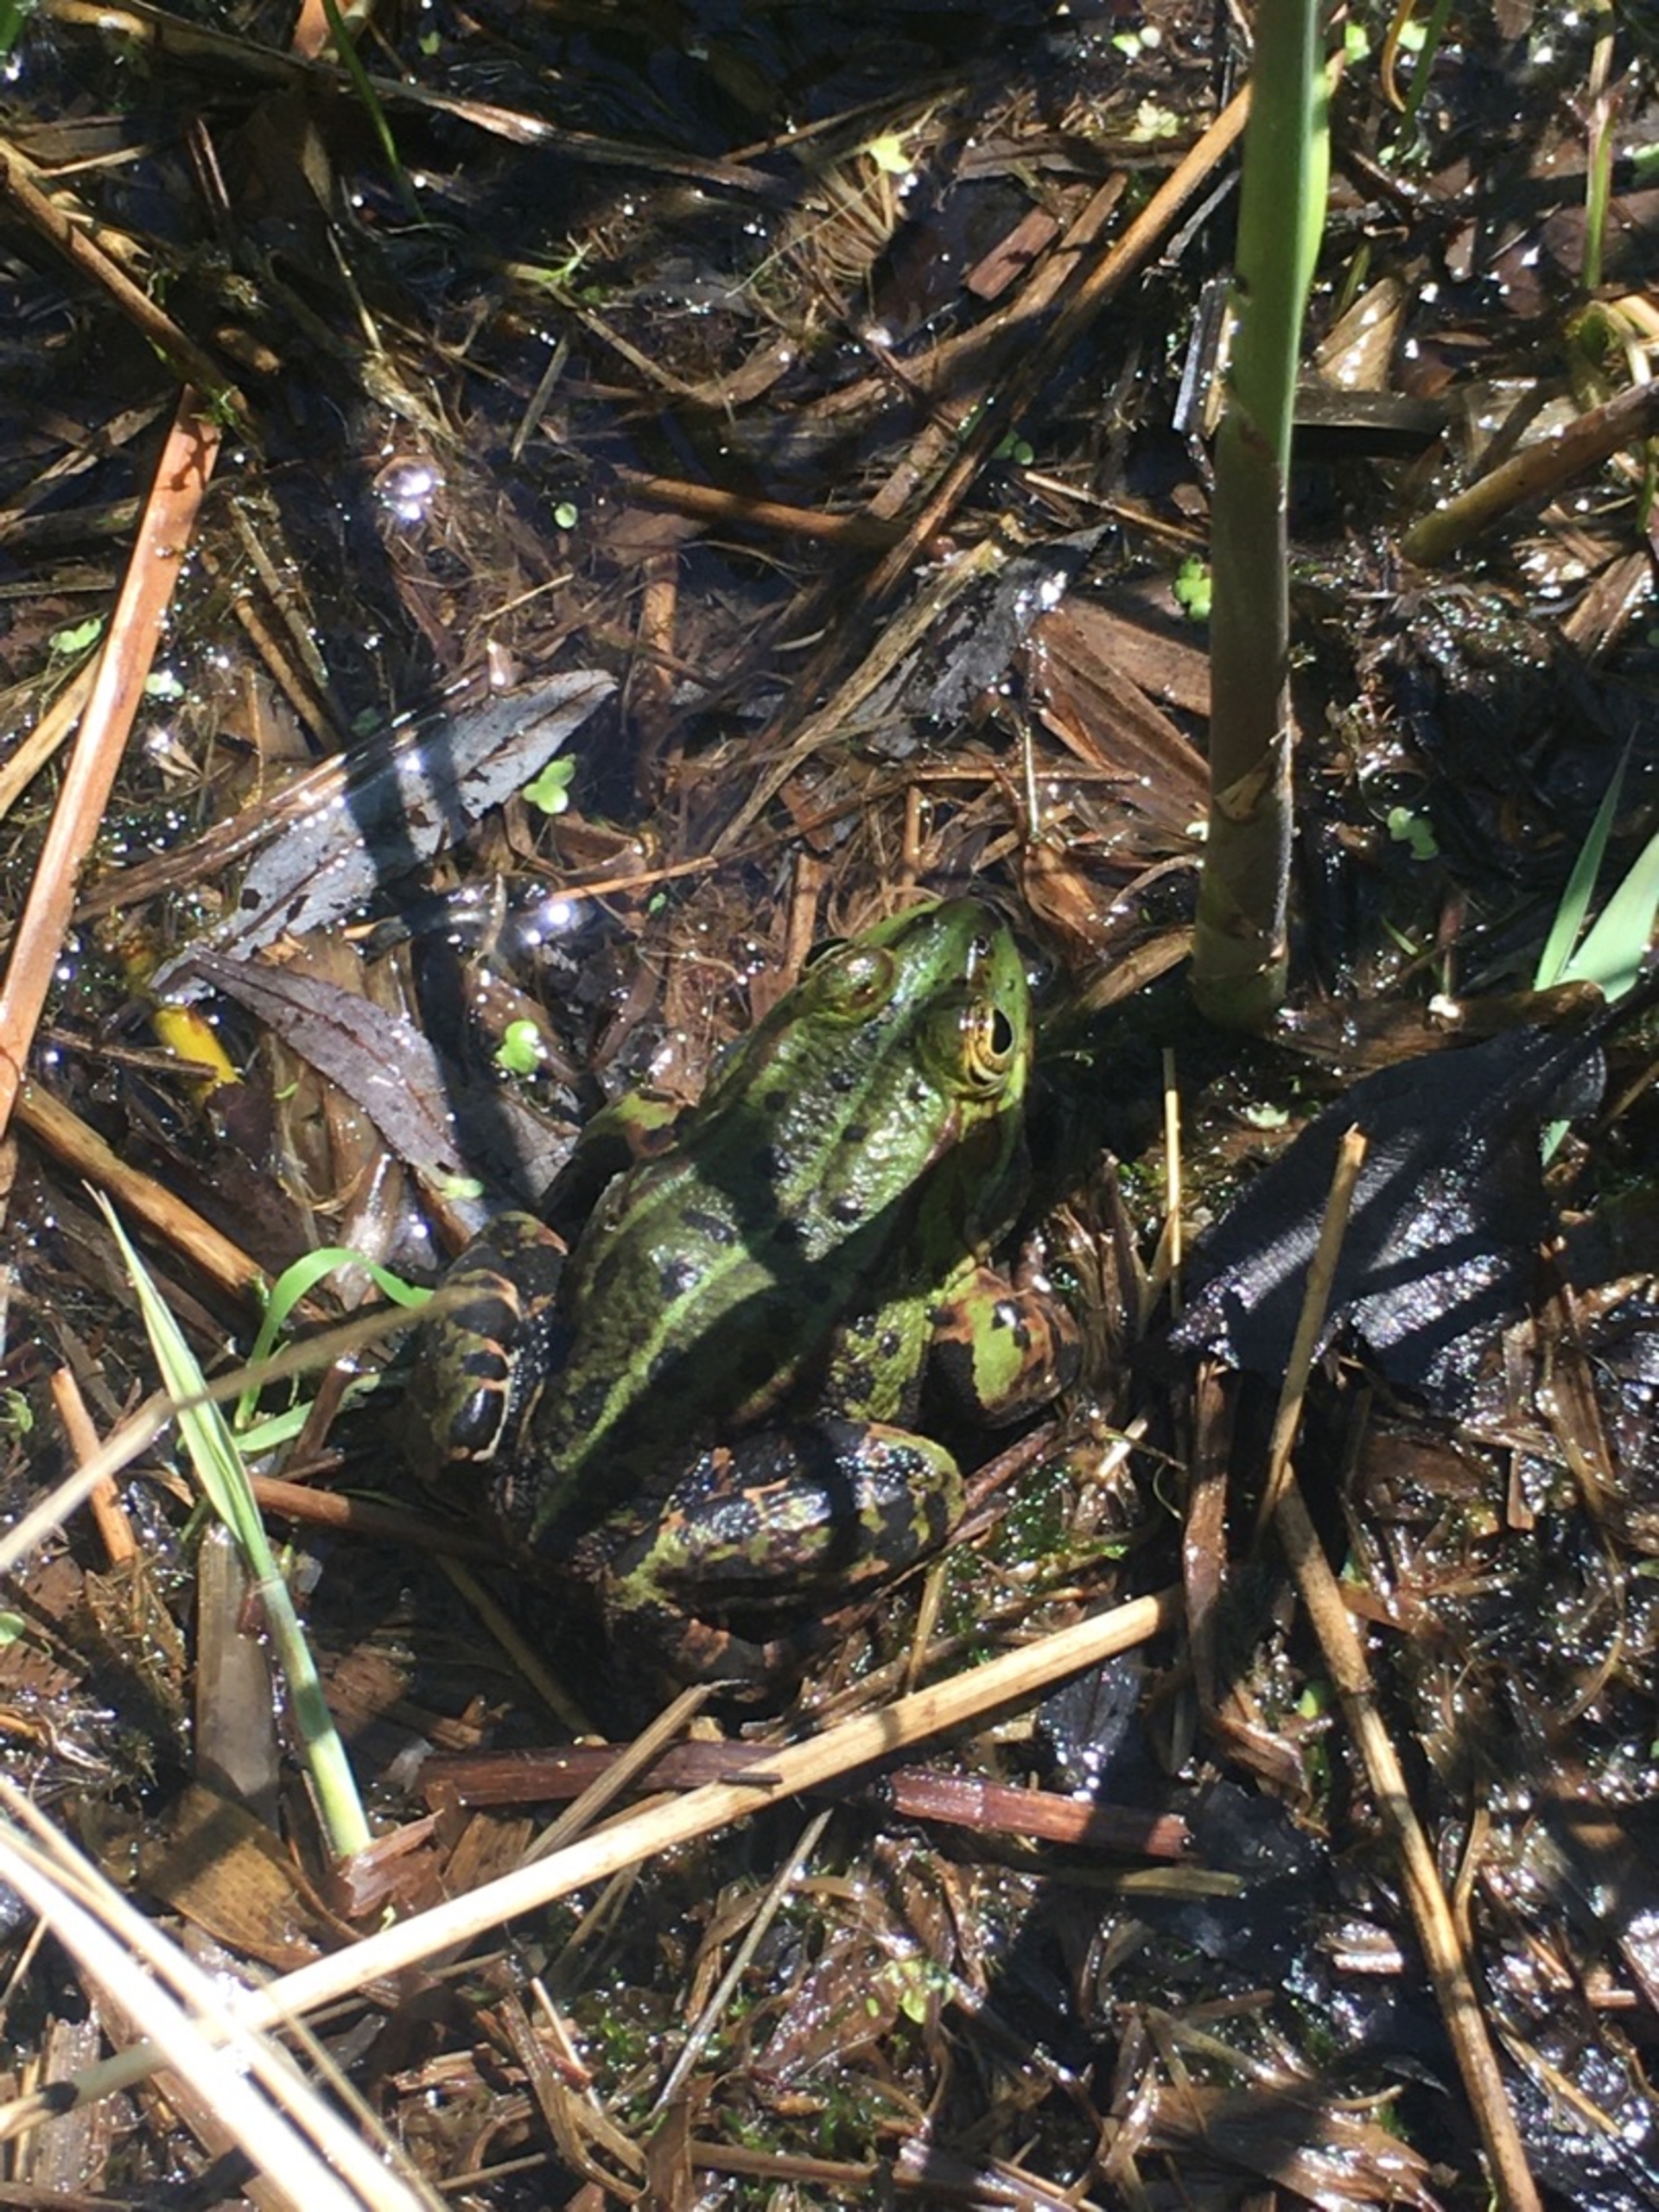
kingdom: Animalia
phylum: Chordata
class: Amphibia
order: Anura
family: Ranidae
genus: Pelophylax
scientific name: Pelophylax lessonae
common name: Grøn frø
